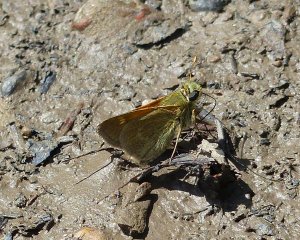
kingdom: Animalia
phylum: Arthropoda
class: Insecta
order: Lepidoptera
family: Hesperiidae
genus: Polites
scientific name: Polites themistocles
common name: Tawny-edged Skipper
